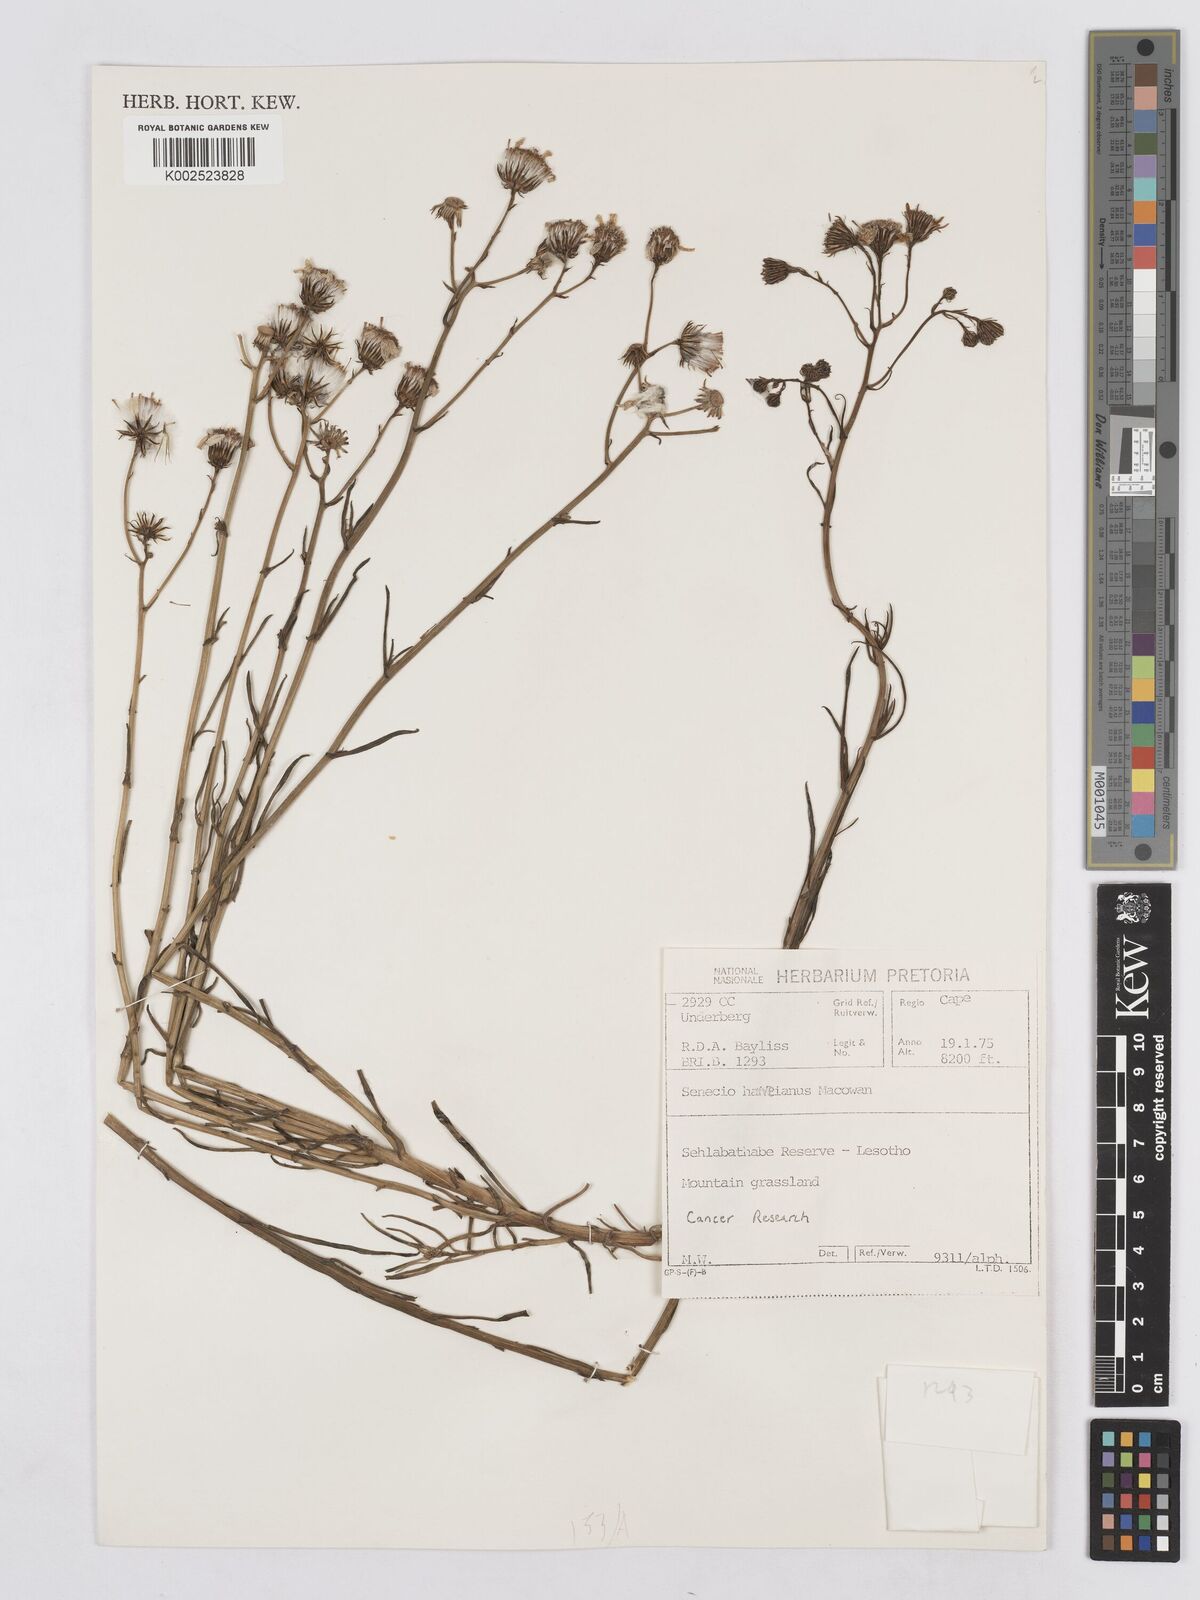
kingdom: Plantae
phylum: Tracheophyta
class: Magnoliopsida
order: Asterales
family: Asteraceae
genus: Senecio
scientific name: Senecio harveyanus
